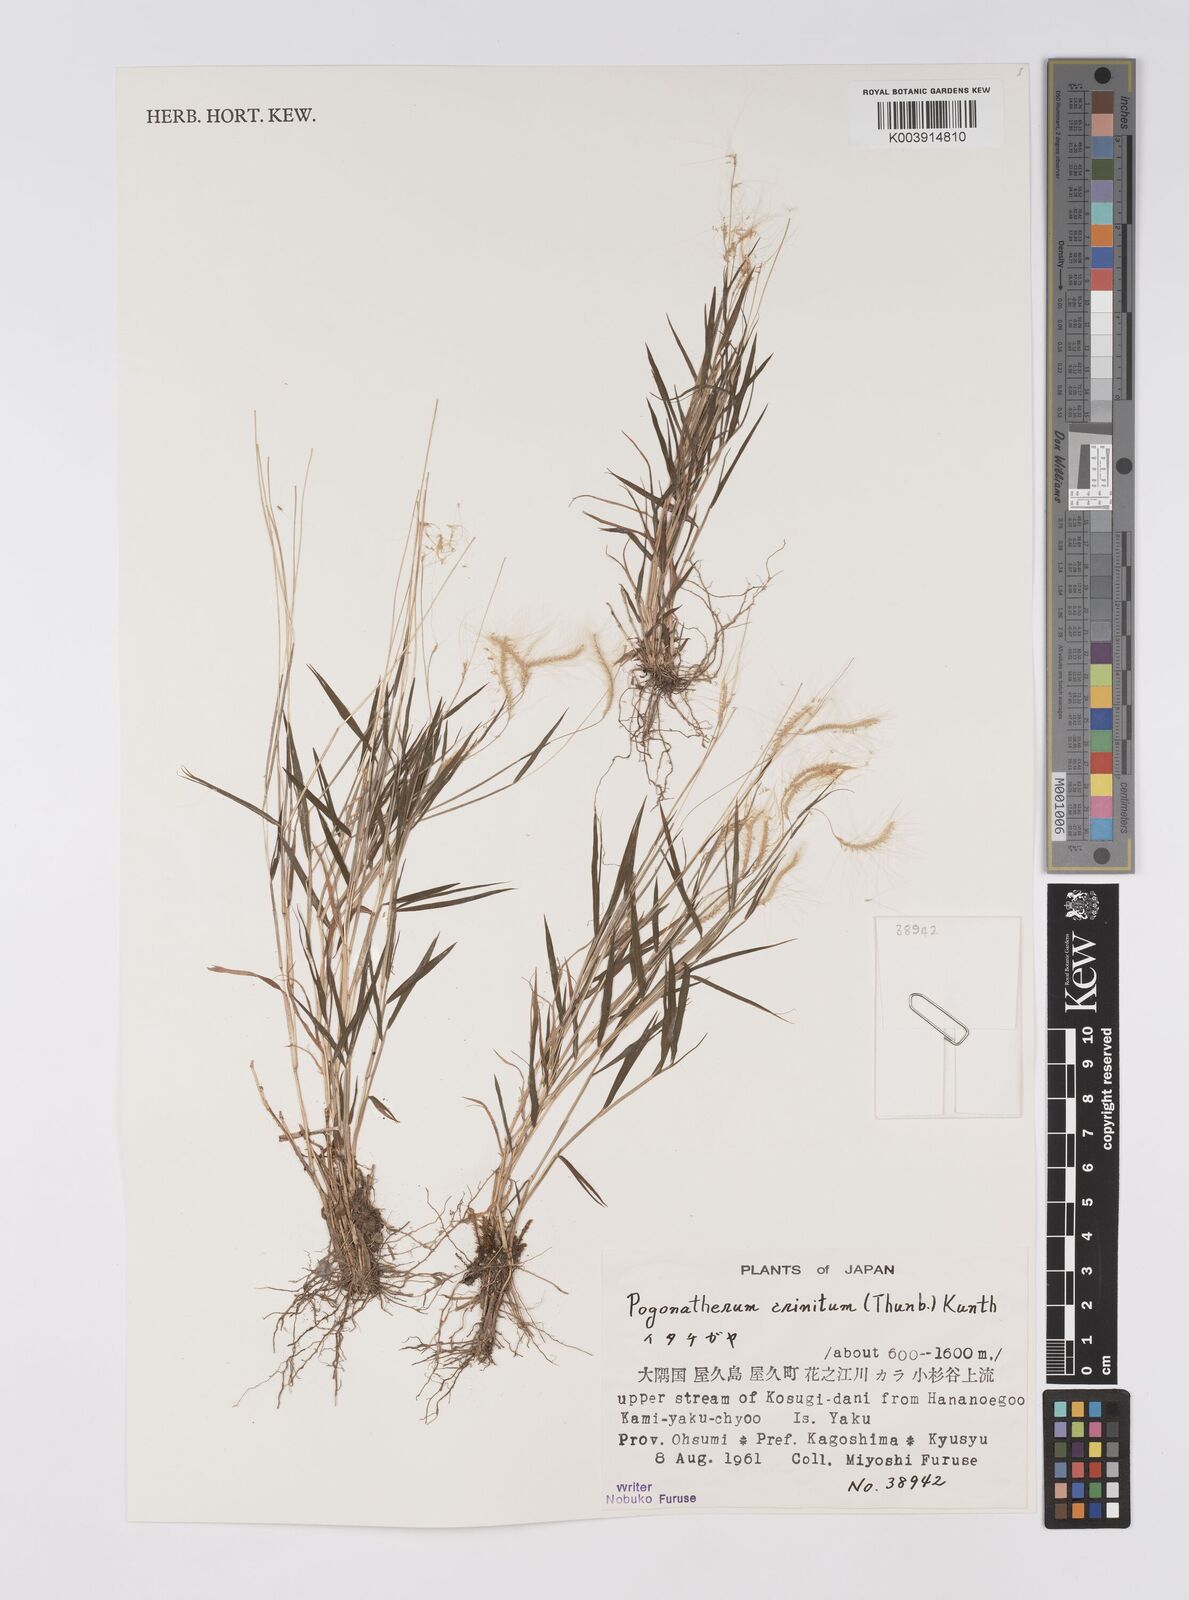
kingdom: Plantae
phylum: Tracheophyta
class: Liliopsida
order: Poales
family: Poaceae
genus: Pogonatherum
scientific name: Pogonatherum crinitum
